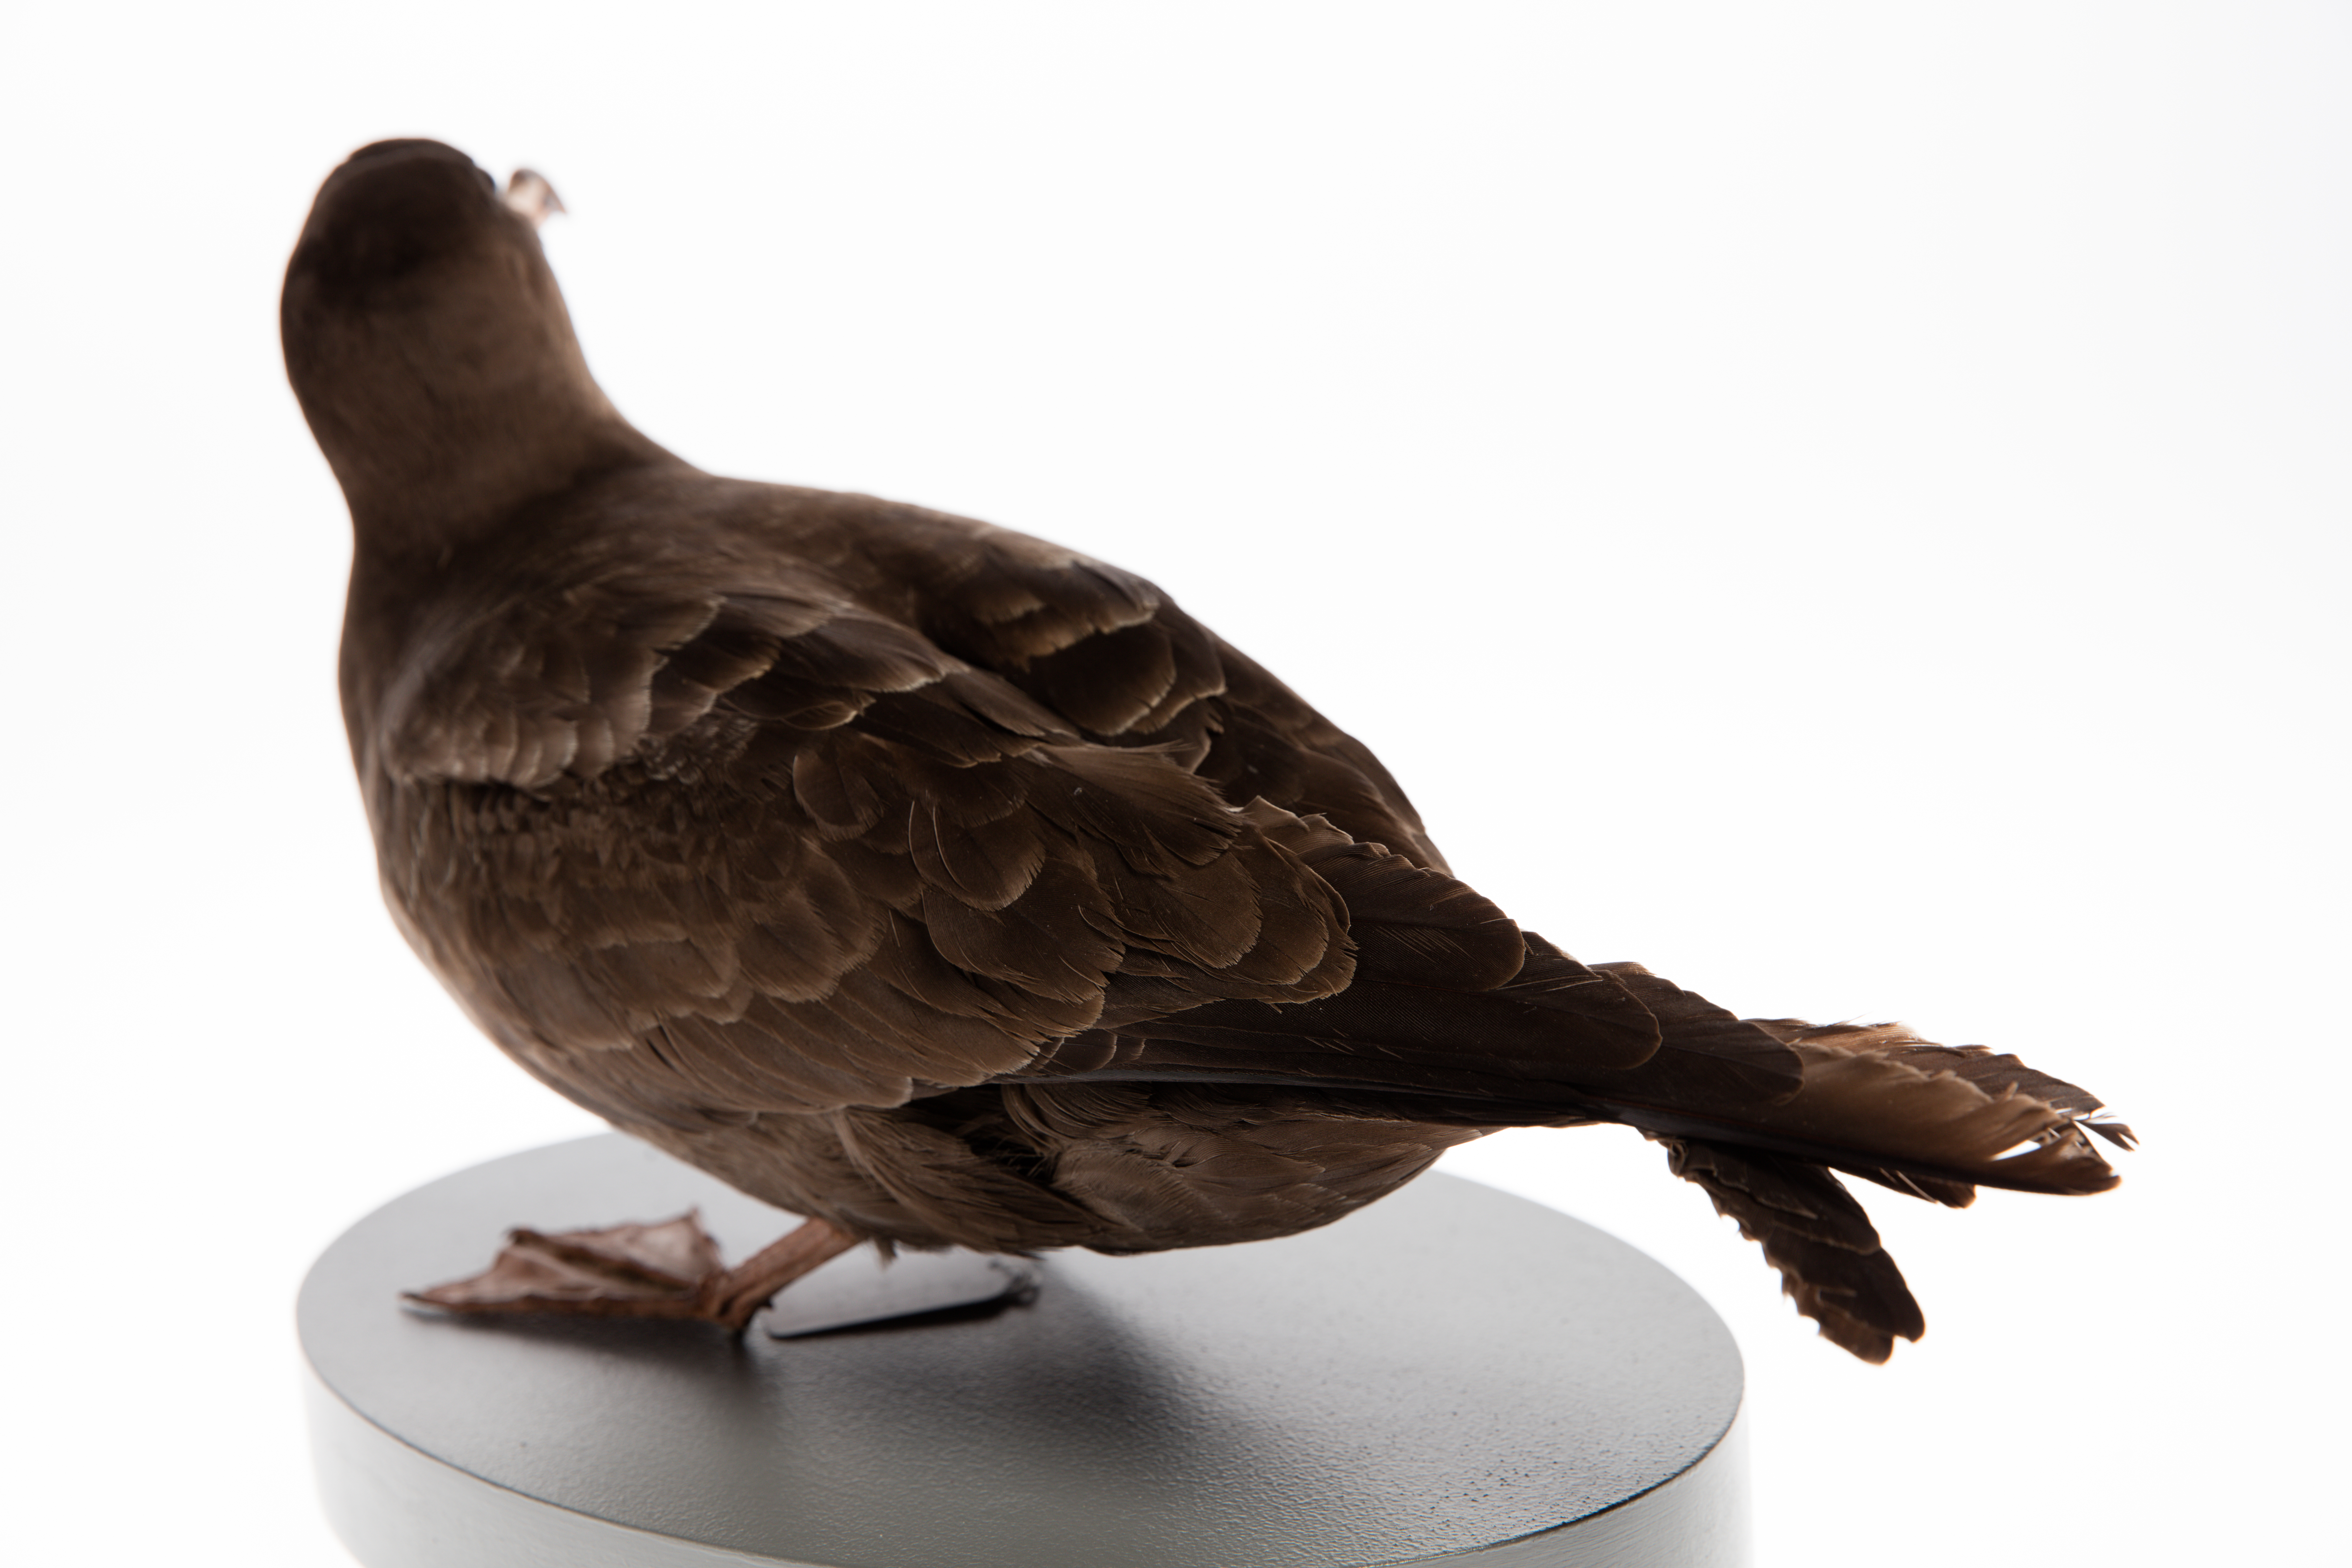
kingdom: Animalia
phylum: Chordata
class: Aves
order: Procellariiformes
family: Procellariidae
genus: Puffinus
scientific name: Puffinus carneipes
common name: Flesh-footed shearwater
